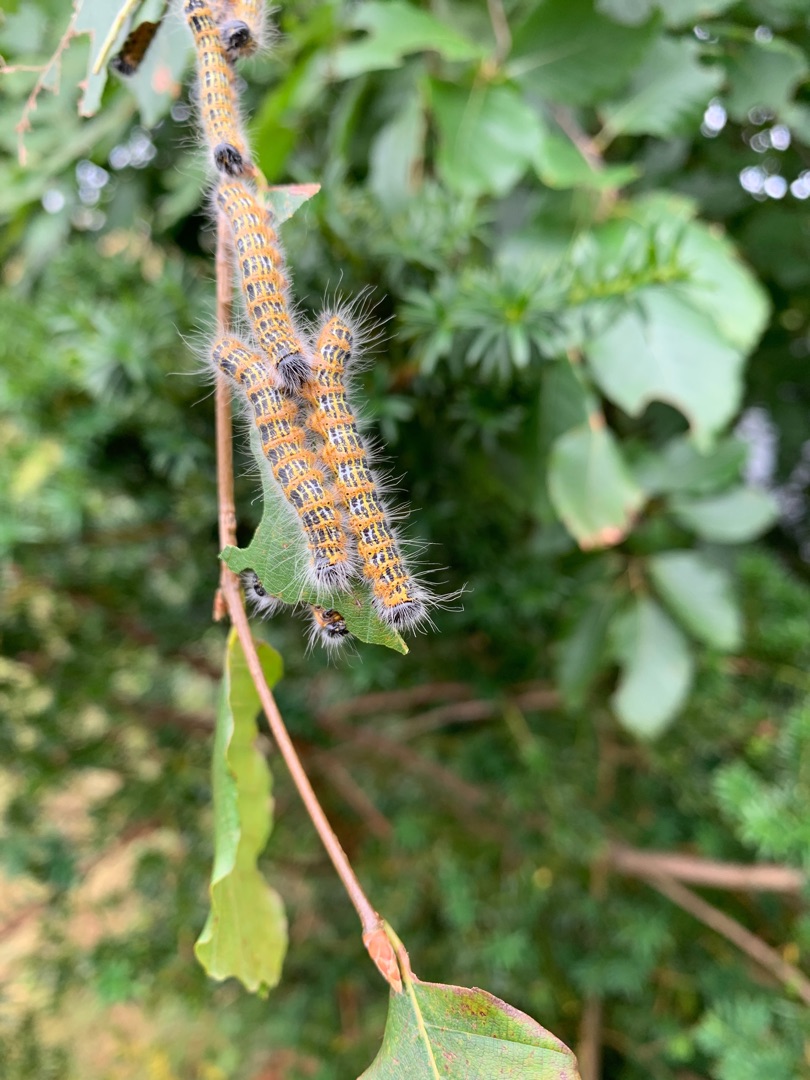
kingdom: Animalia
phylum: Arthropoda
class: Insecta
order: Lepidoptera
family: Notodontidae
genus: Phalera
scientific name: Phalera bucephala
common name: Måneplet
